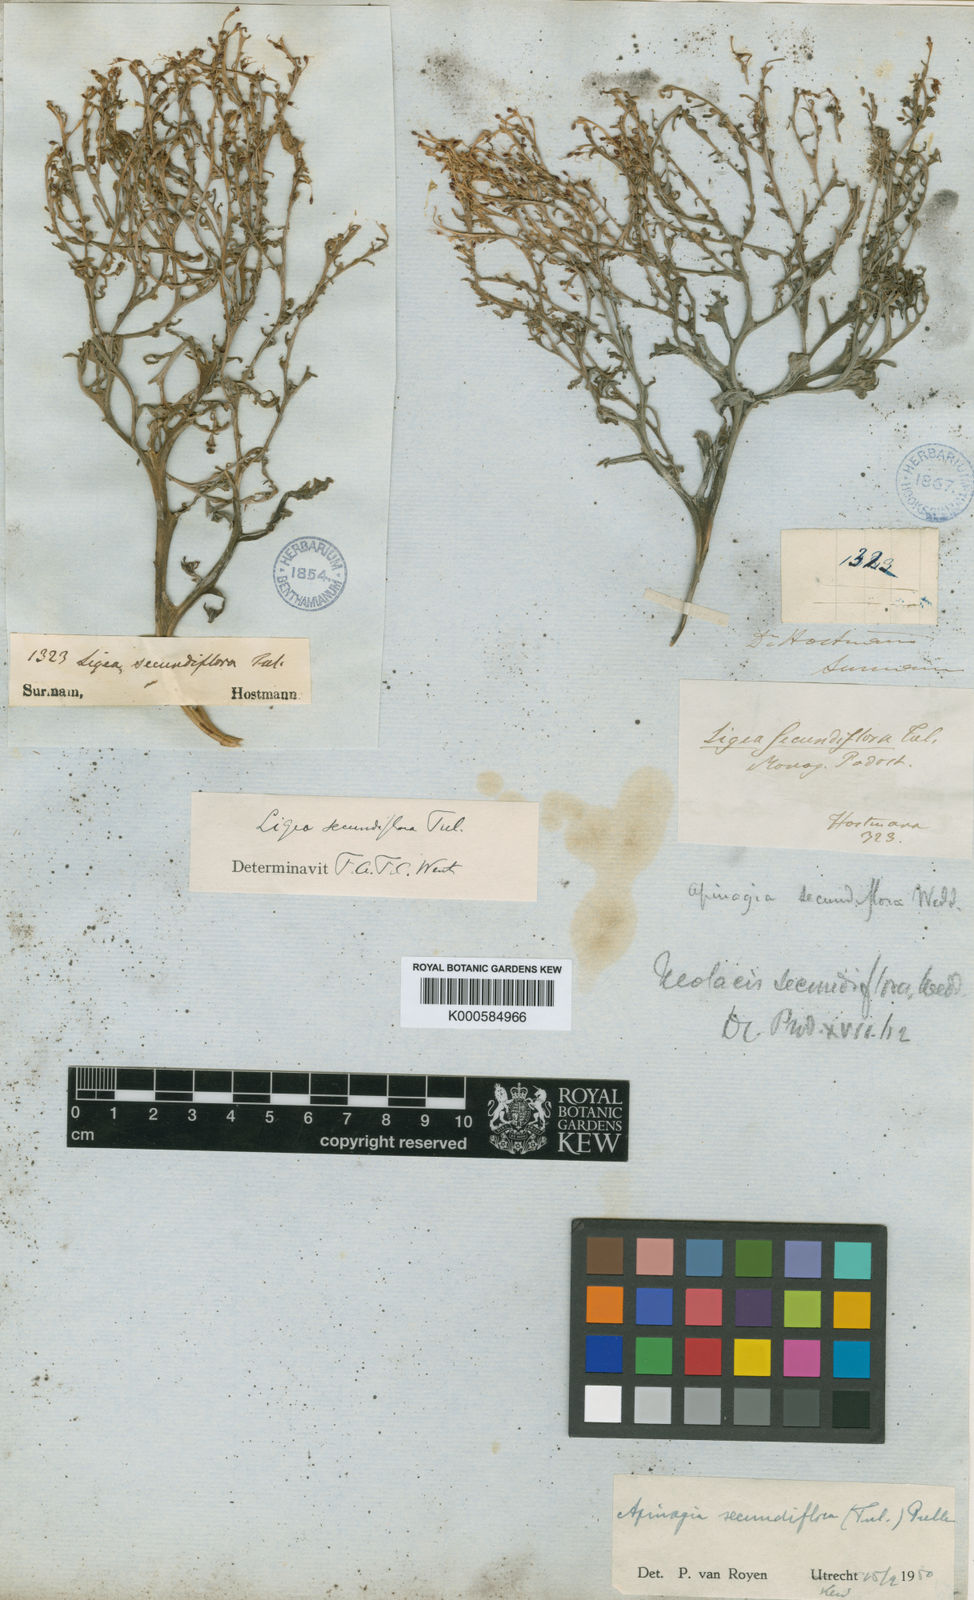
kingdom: Plantae
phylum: Tracheophyta
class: Magnoliopsida
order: Malpighiales
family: Podostemaceae
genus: Apinagia
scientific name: Apinagia secundiflora
